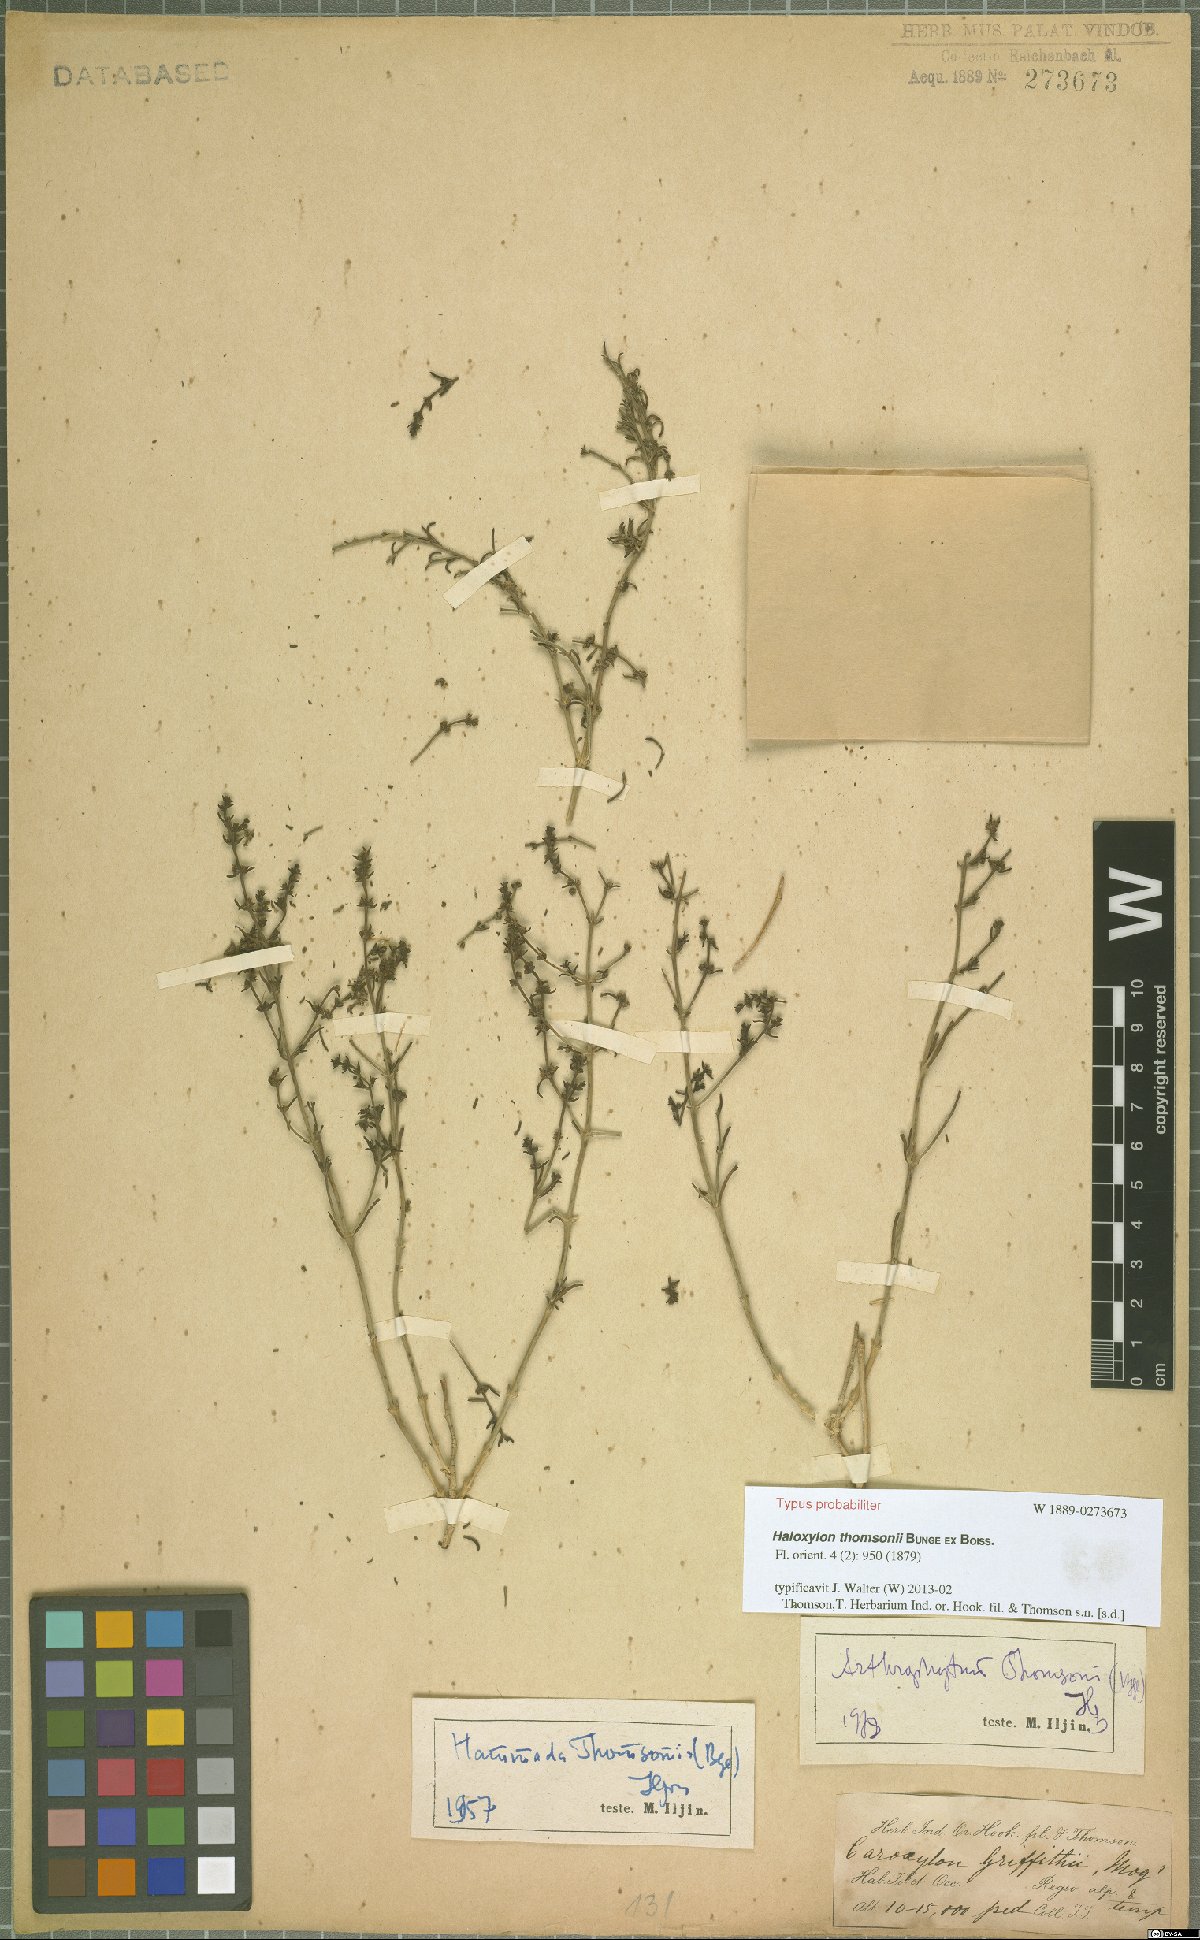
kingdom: Plantae
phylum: Tracheophyta
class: Magnoliopsida
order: Caryophyllales
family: Amaranthaceae
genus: Haloxylon
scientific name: Haloxylon thomsonii
